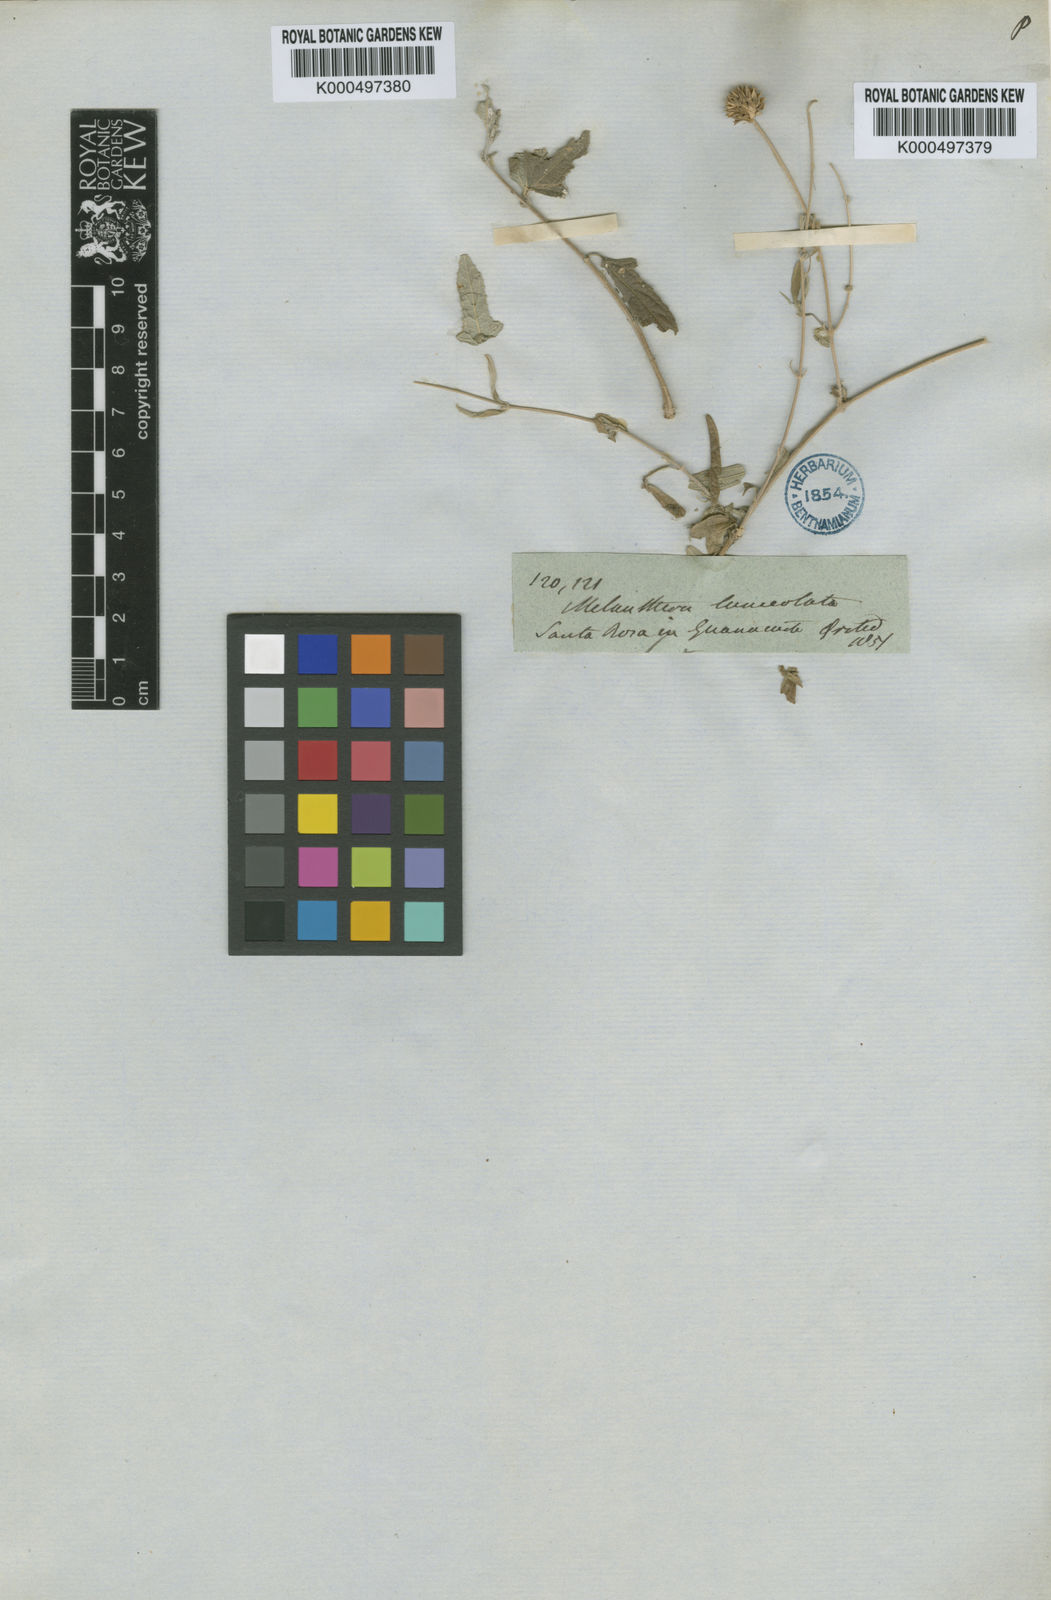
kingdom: Plantae
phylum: Tracheophyta
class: Magnoliopsida
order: Asterales
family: Asteraceae
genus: Melanthera
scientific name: Melanthera nivea
